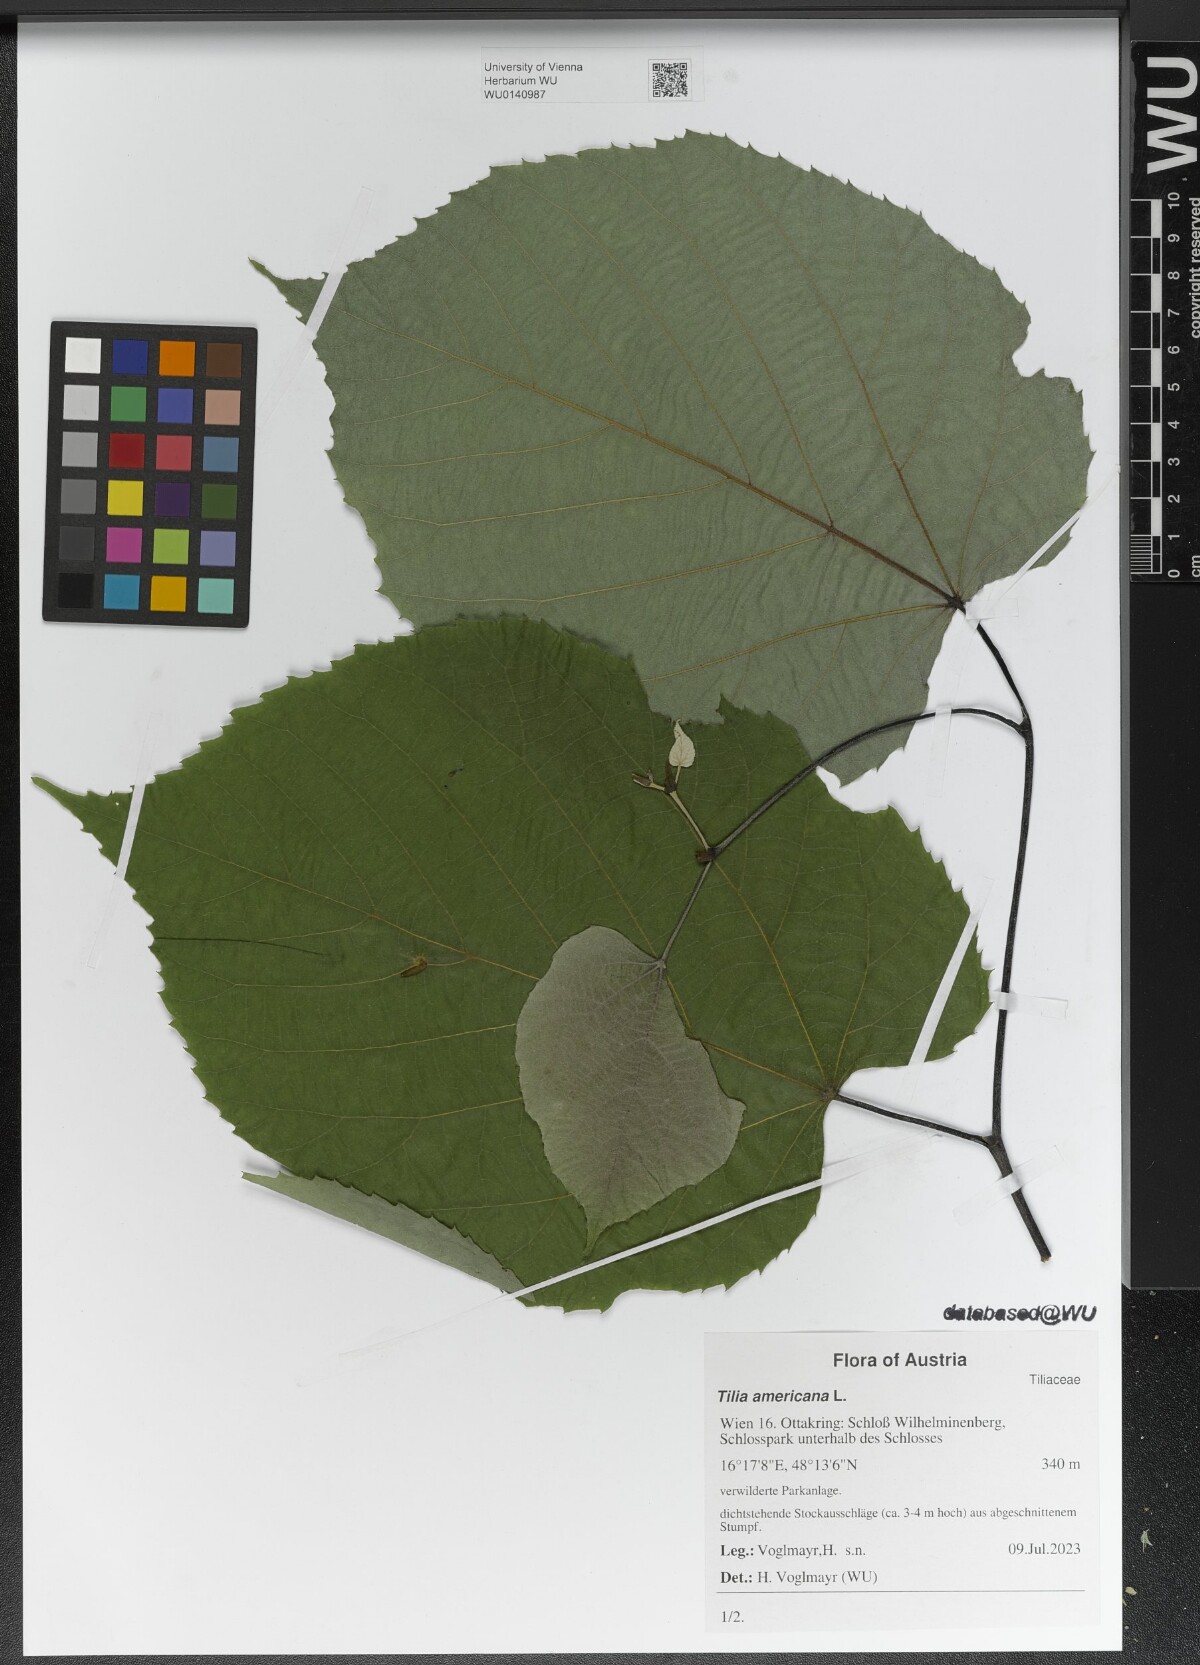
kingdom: Plantae
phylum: Tracheophyta
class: Magnoliopsida
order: Malvales
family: Malvaceae
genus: Tilia
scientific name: Tilia americana
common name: Basswood
